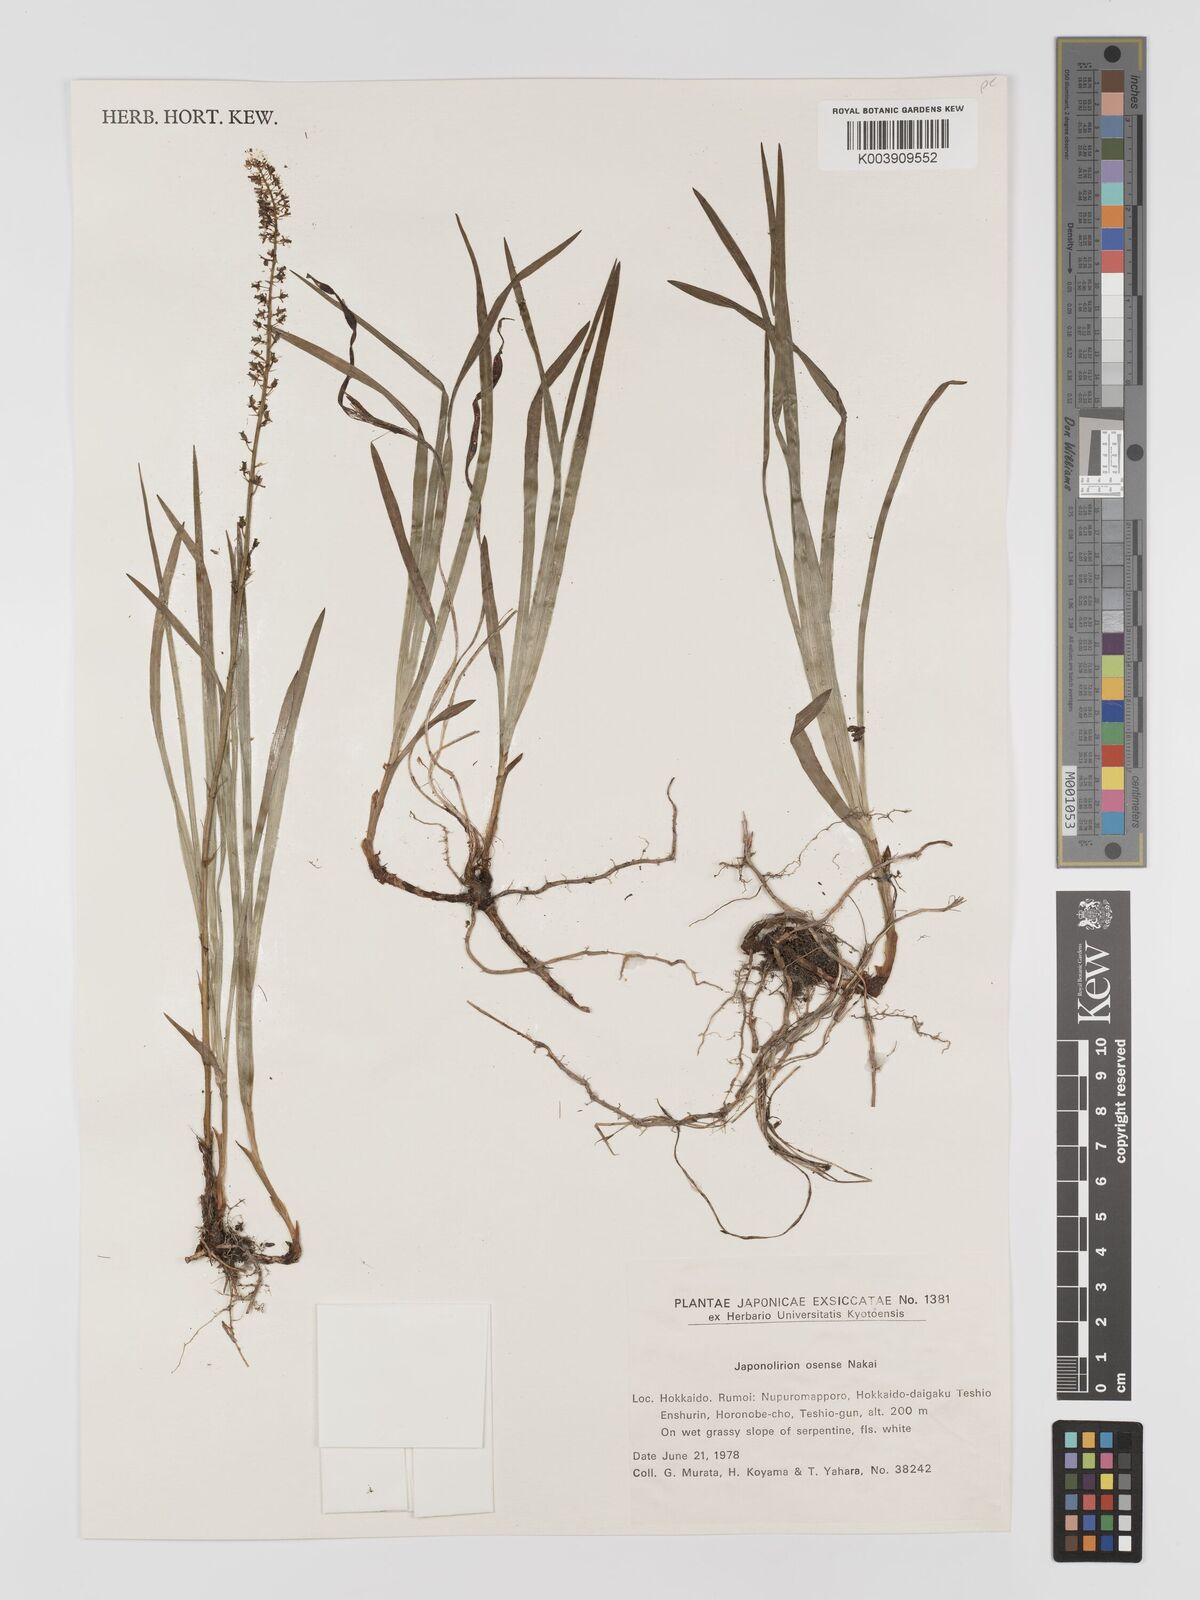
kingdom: Plantae
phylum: Tracheophyta
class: Liliopsida
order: Petrosaviales
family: Petrosaviaceae
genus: Japonolirion
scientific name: Japonolirion osense
